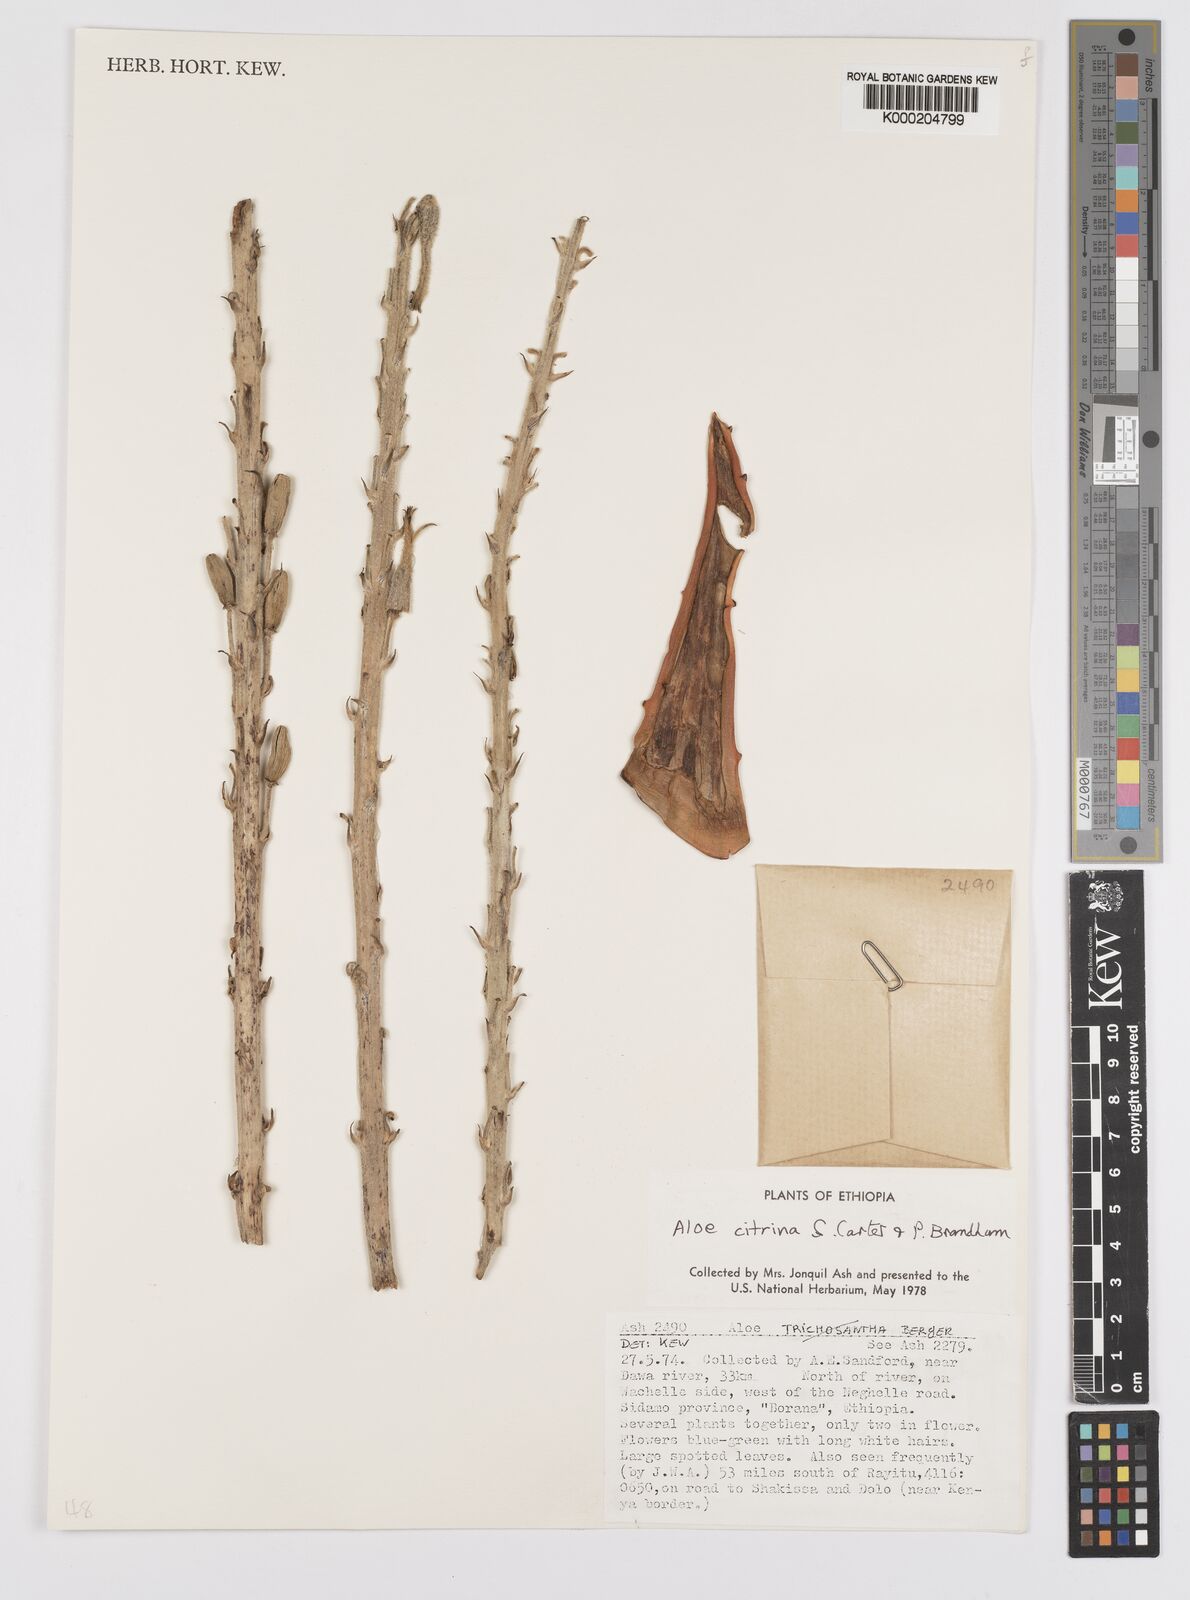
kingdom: Plantae
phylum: Tracheophyta
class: Liliopsida
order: Asparagales
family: Asphodelaceae
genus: Aloe
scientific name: Aloe citrina
